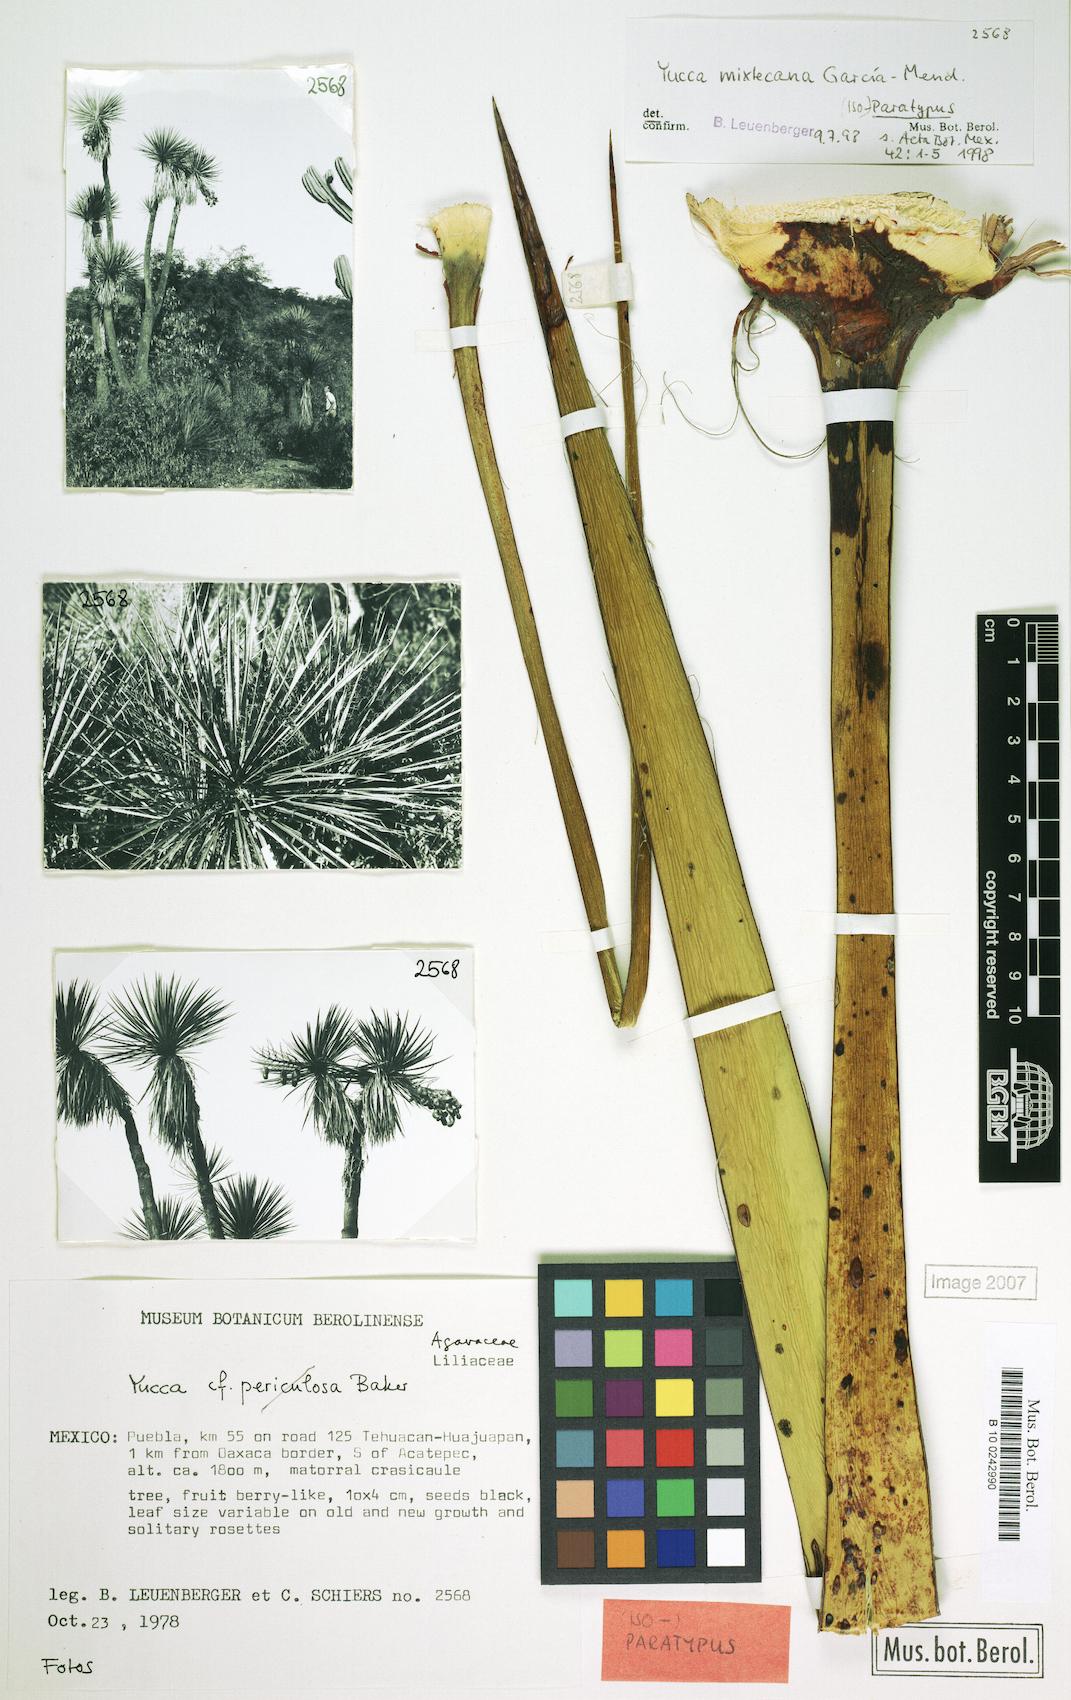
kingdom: Plantae
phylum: Tracheophyta
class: Liliopsida
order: Asparagales
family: Asparagaceae
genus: Yucca
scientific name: Yucca mixtecana
